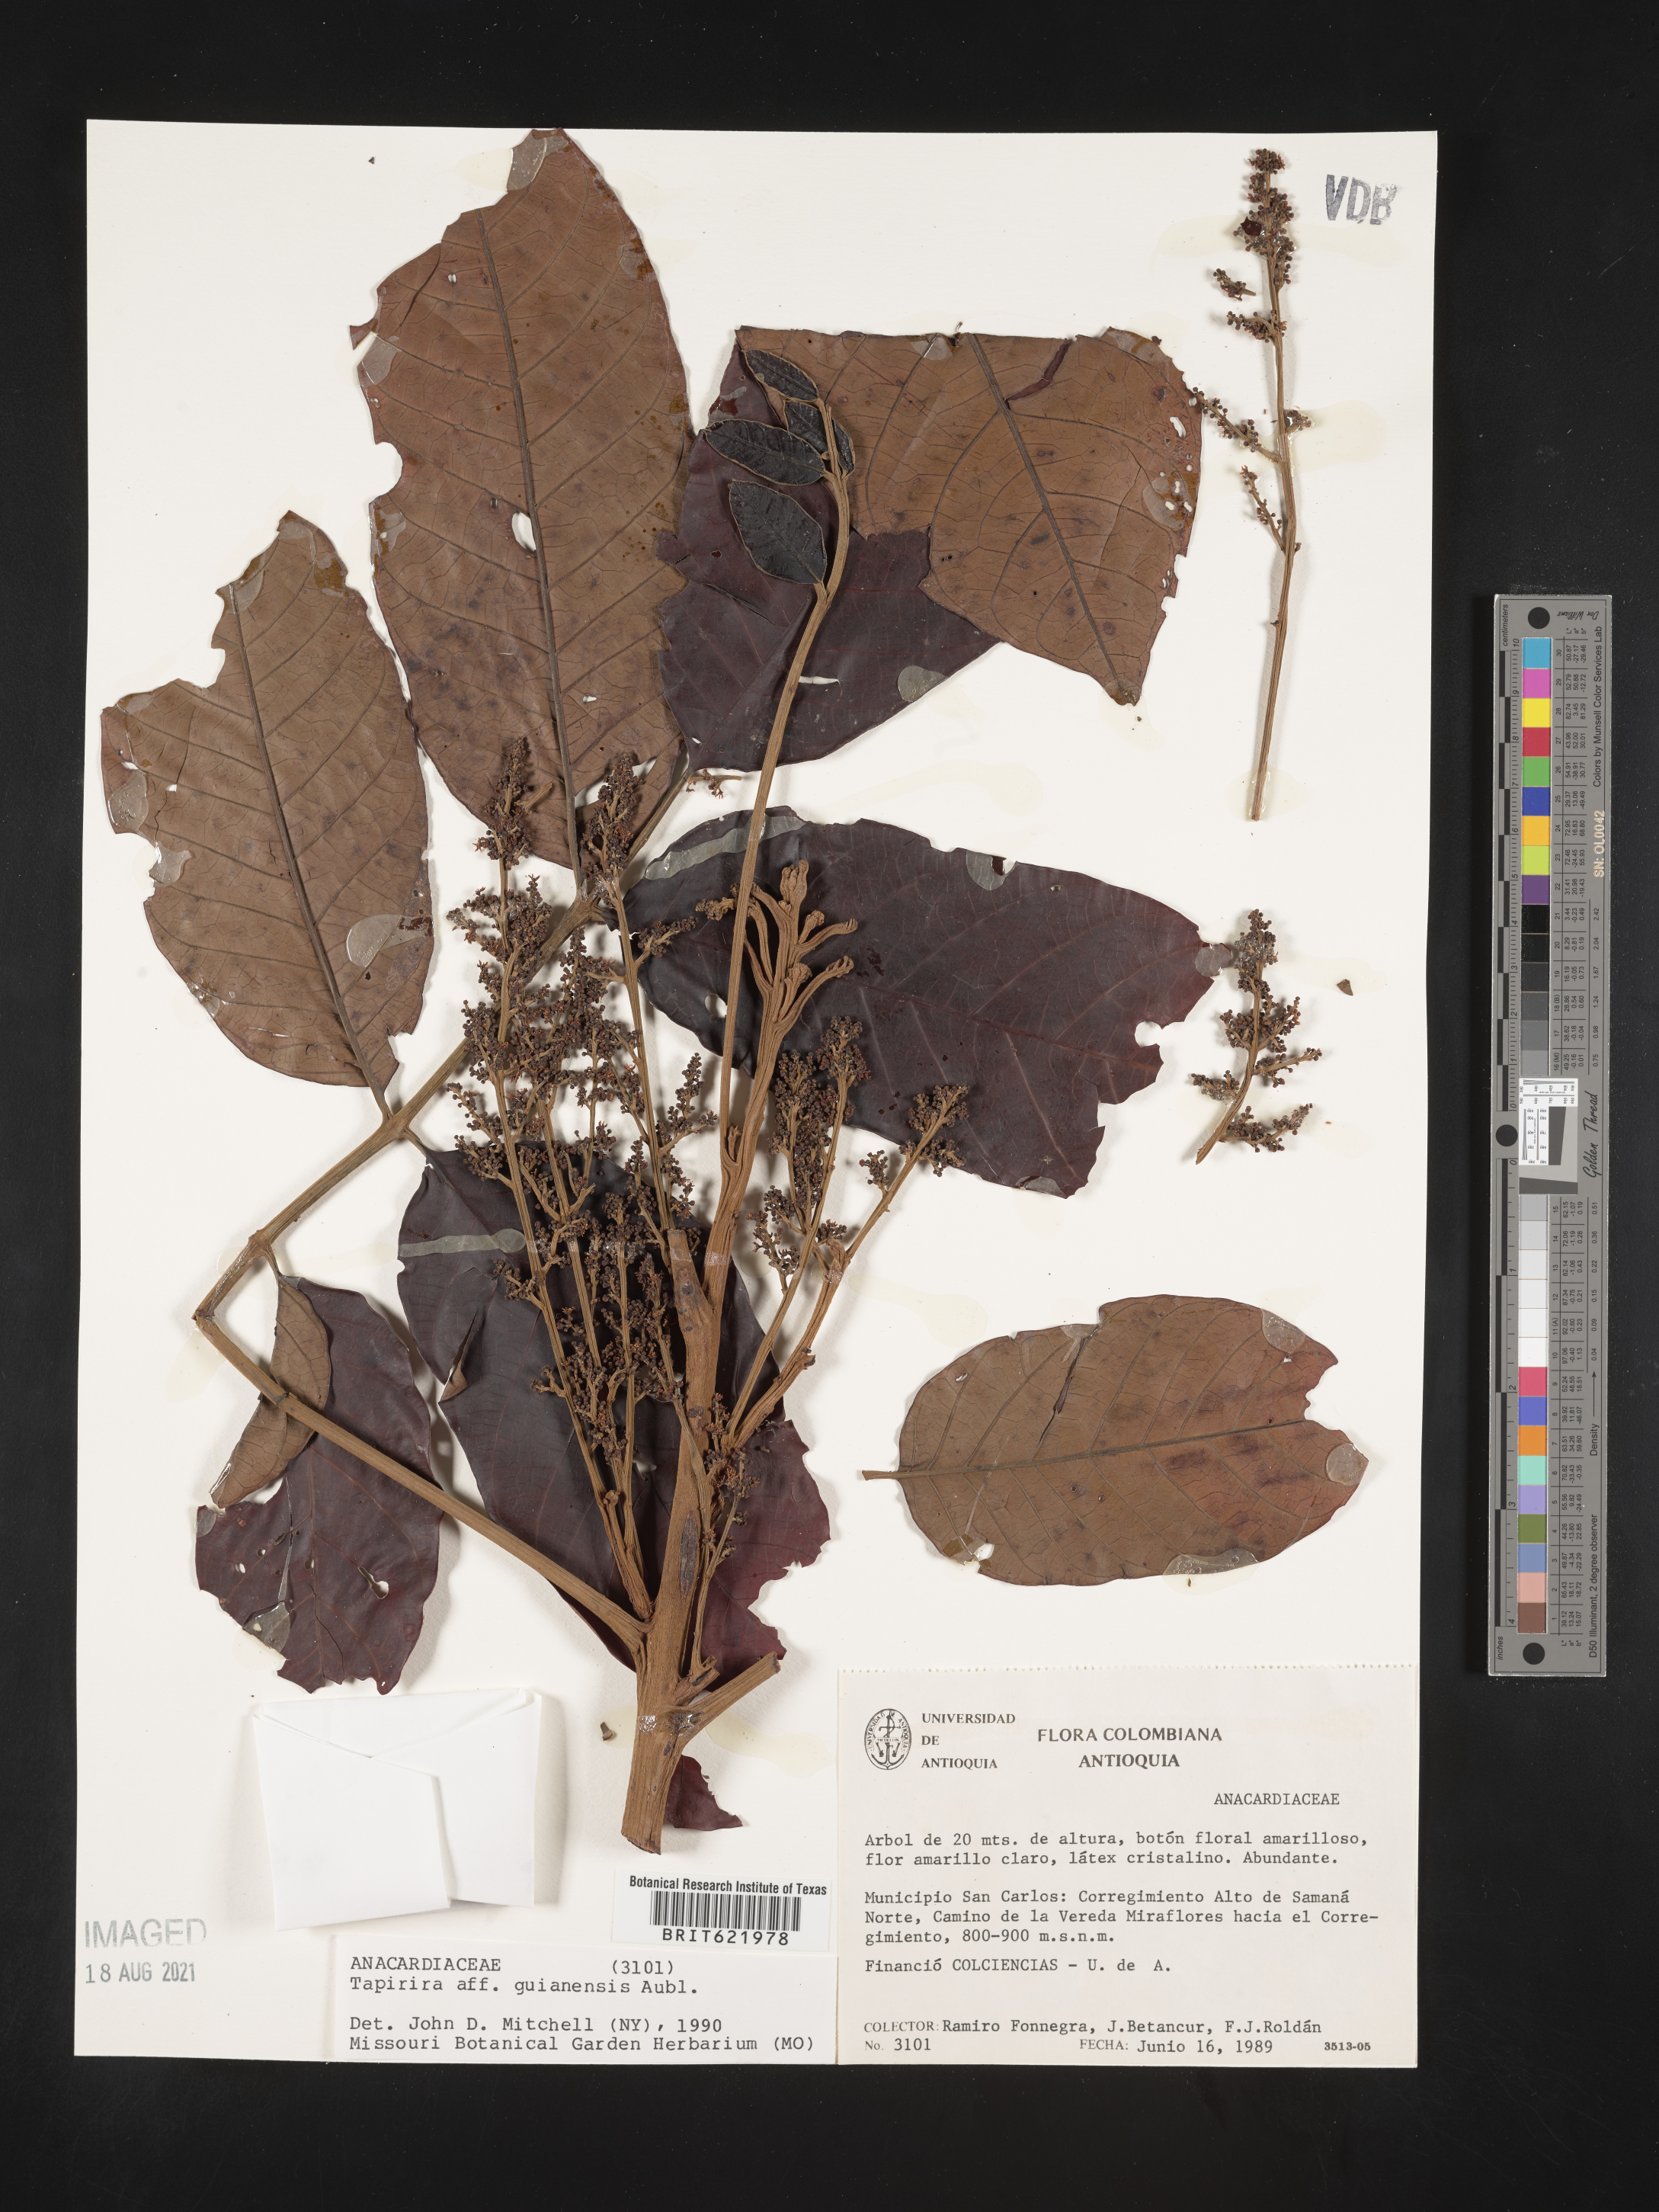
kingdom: Plantae
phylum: Tracheophyta
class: Magnoliopsida
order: Sapindales
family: Anacardiaceae
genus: Tapirira
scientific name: Tapirira guianensis
